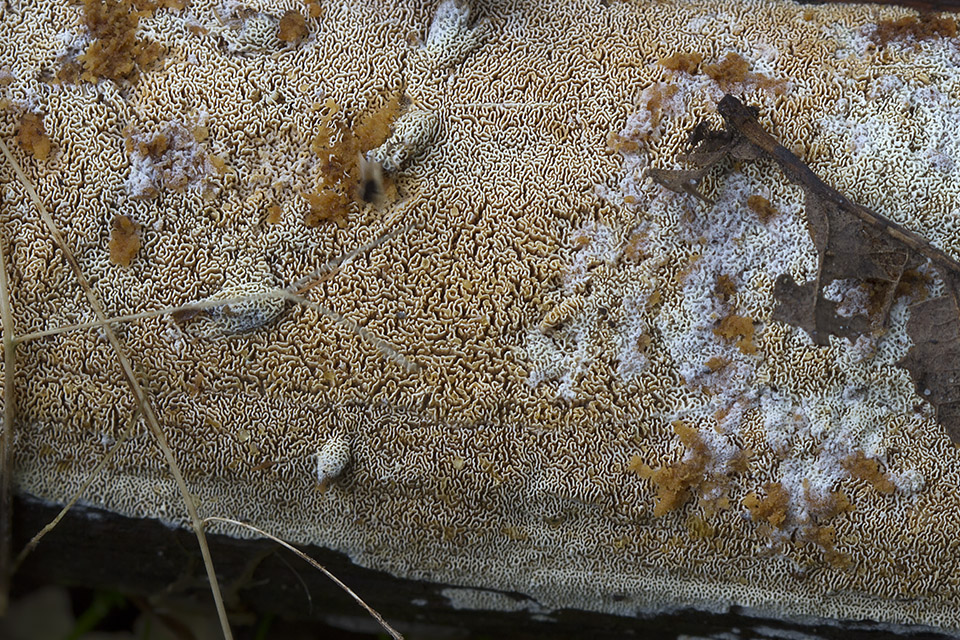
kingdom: Fungi
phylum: Basidiomycota
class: Agaricomycetes
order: Hymenochaetales
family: Schizoporaceae
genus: Xylodon
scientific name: Xylodon subtropicus
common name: labyrint-tandsvamp
